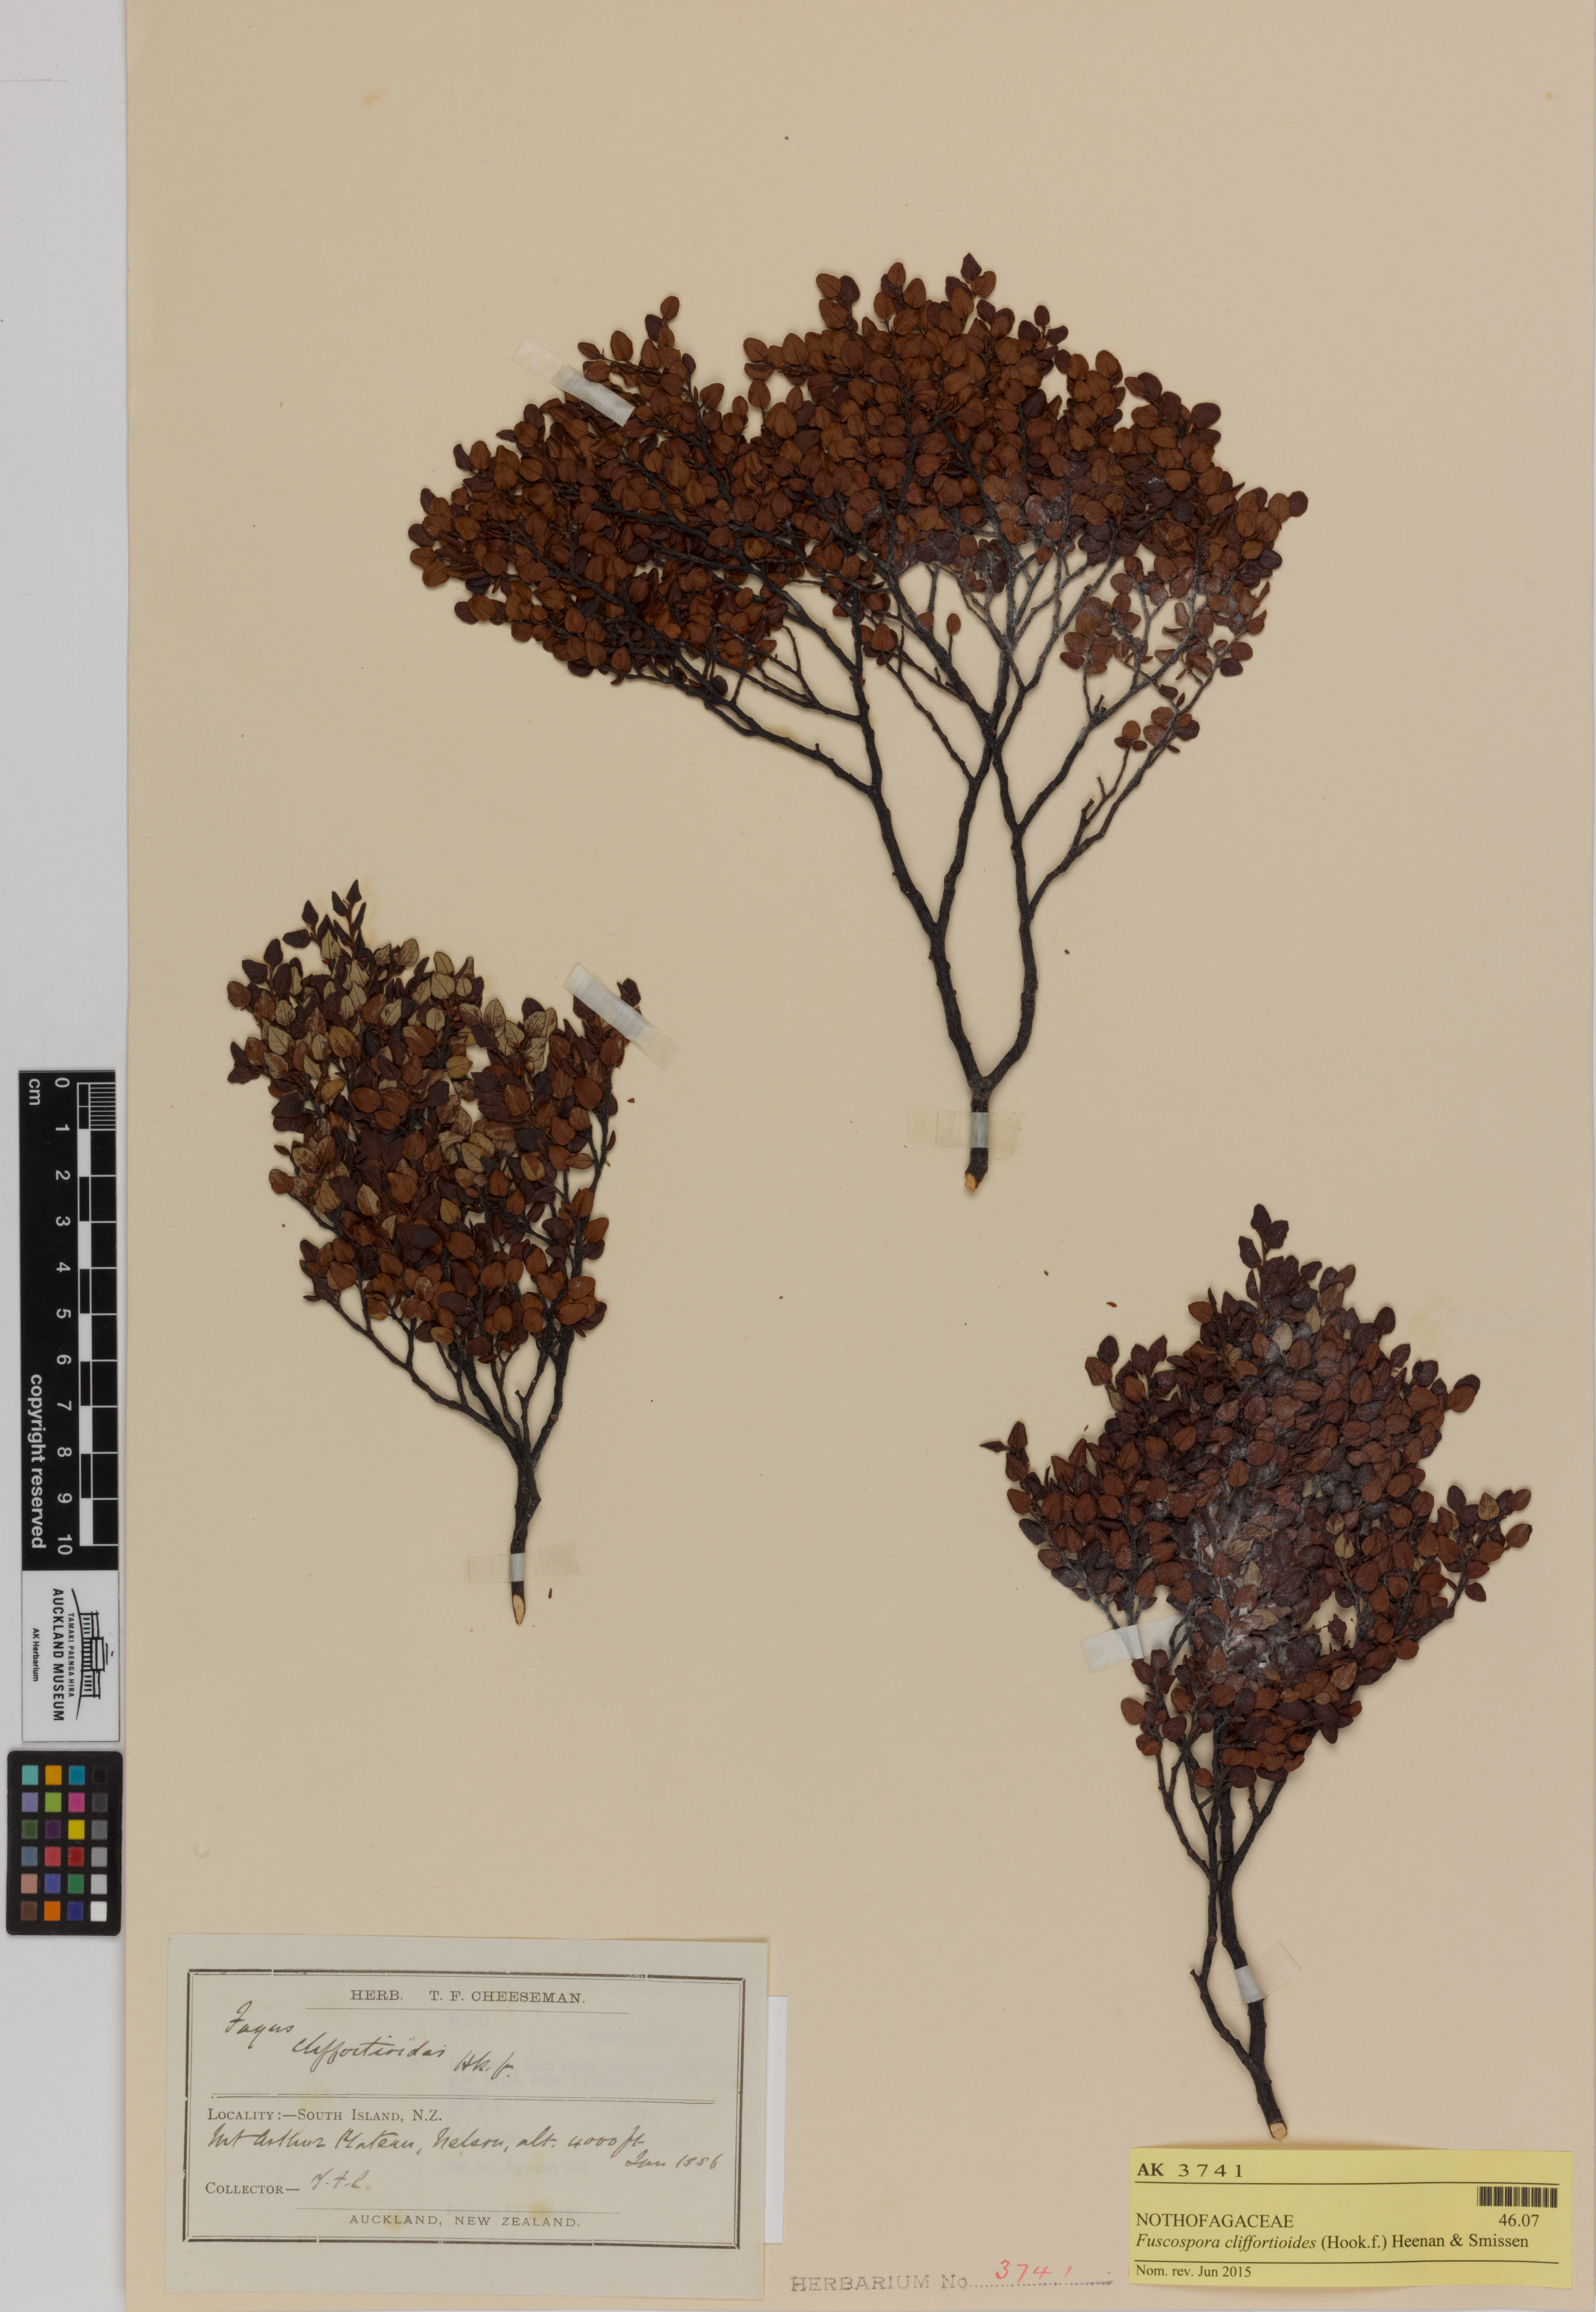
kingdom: Plantae
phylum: Tracheophyta
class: Magnoliopsida
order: Fagales
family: Nothofagaceae
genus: Nothofagus
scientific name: Nothofagus cliffortioides
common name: Mountain beech
